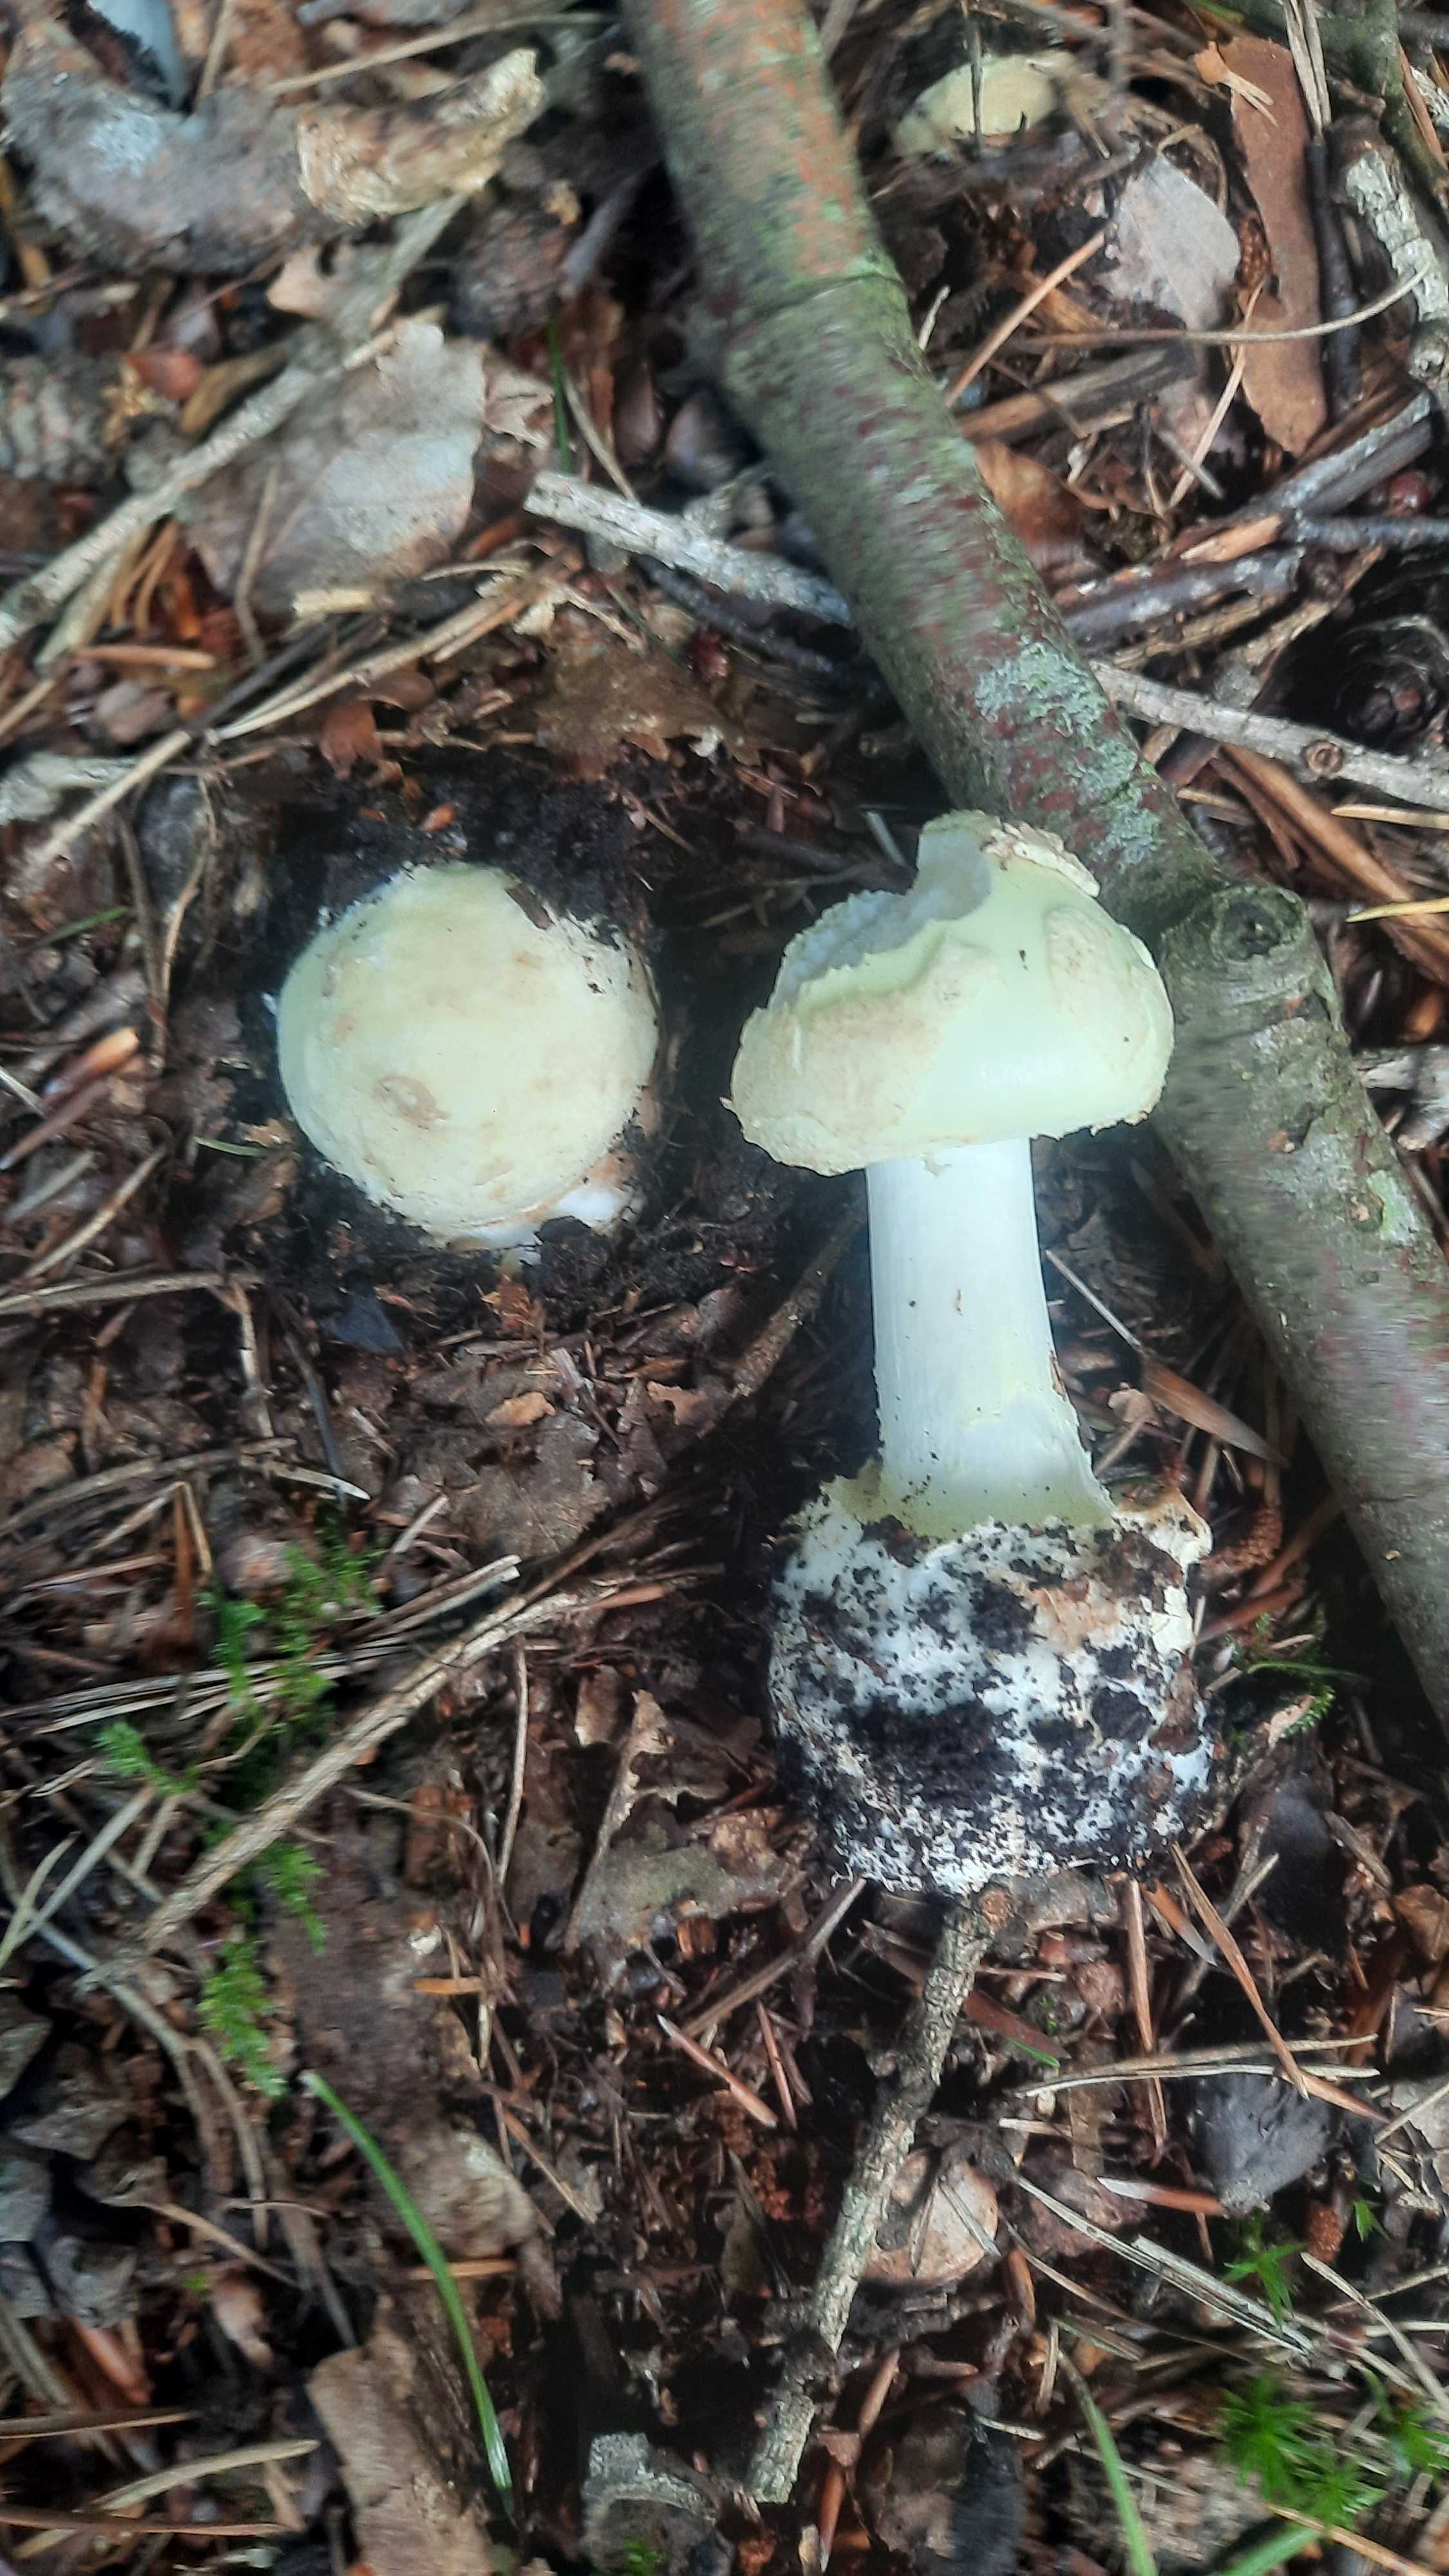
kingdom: Fungi
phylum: Basidiomycota
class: Agaricomycetes
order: Agaricales
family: Amanitaceae
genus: Amanita
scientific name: Amanita citrina
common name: kugleknoldet fluesvamp
